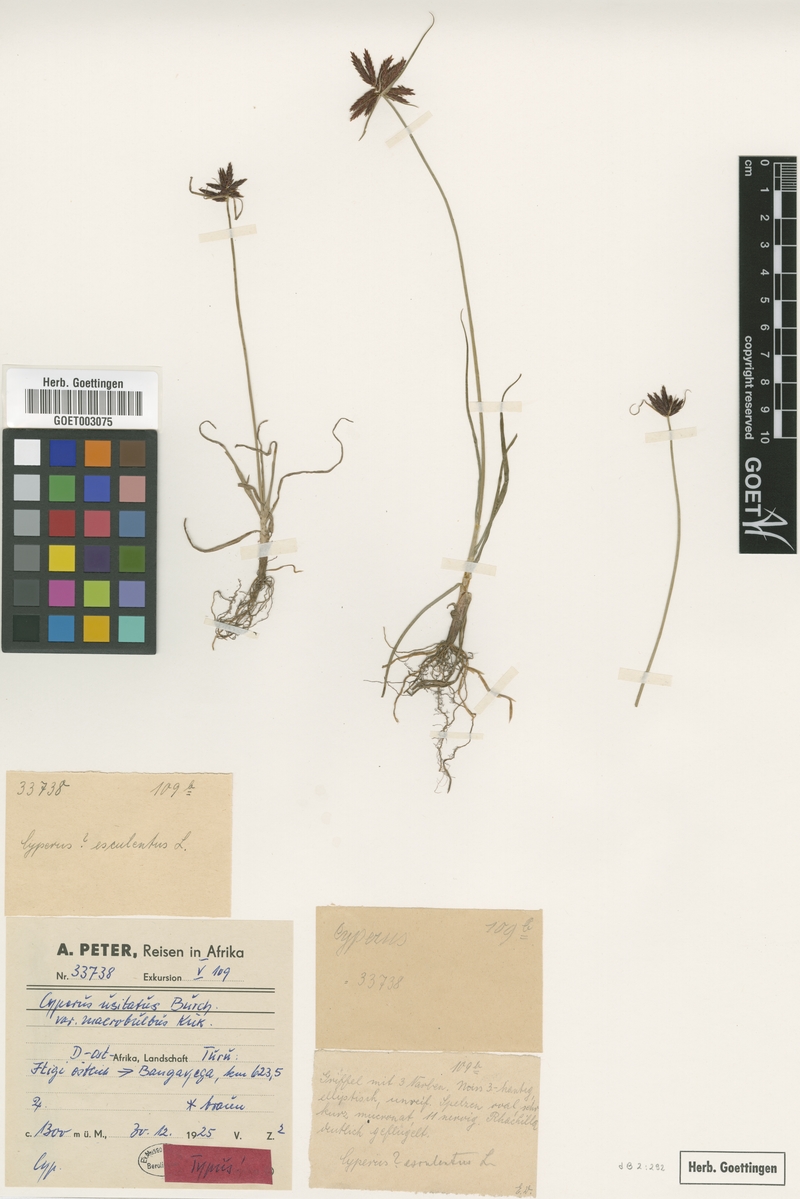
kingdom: Plantae
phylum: Tracheophyta
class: Liliopsida
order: Poales
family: Cyperaceae
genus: Cyperus
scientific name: Cyperus usitatus
